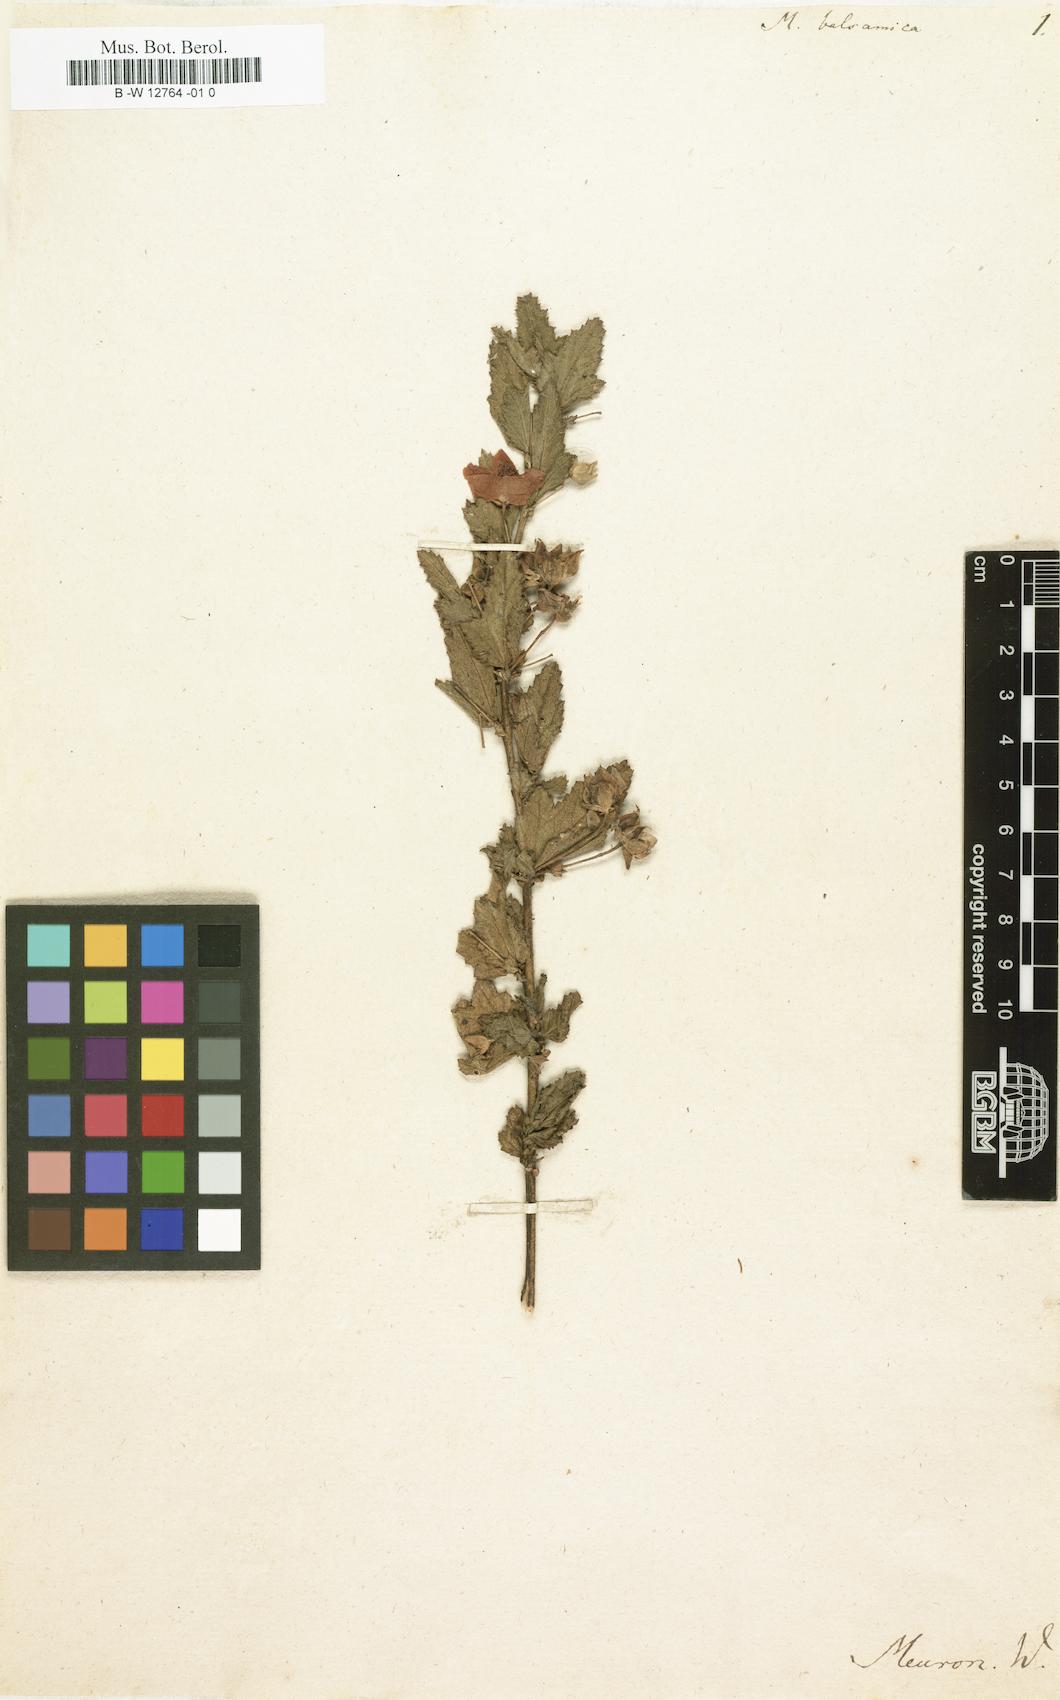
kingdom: Plantae
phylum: Tracheophyta
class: Magnoliopsida
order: Malvales
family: Malvaceae
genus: Anisodontea
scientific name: Anisodontea capensis
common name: Cape african-queen
